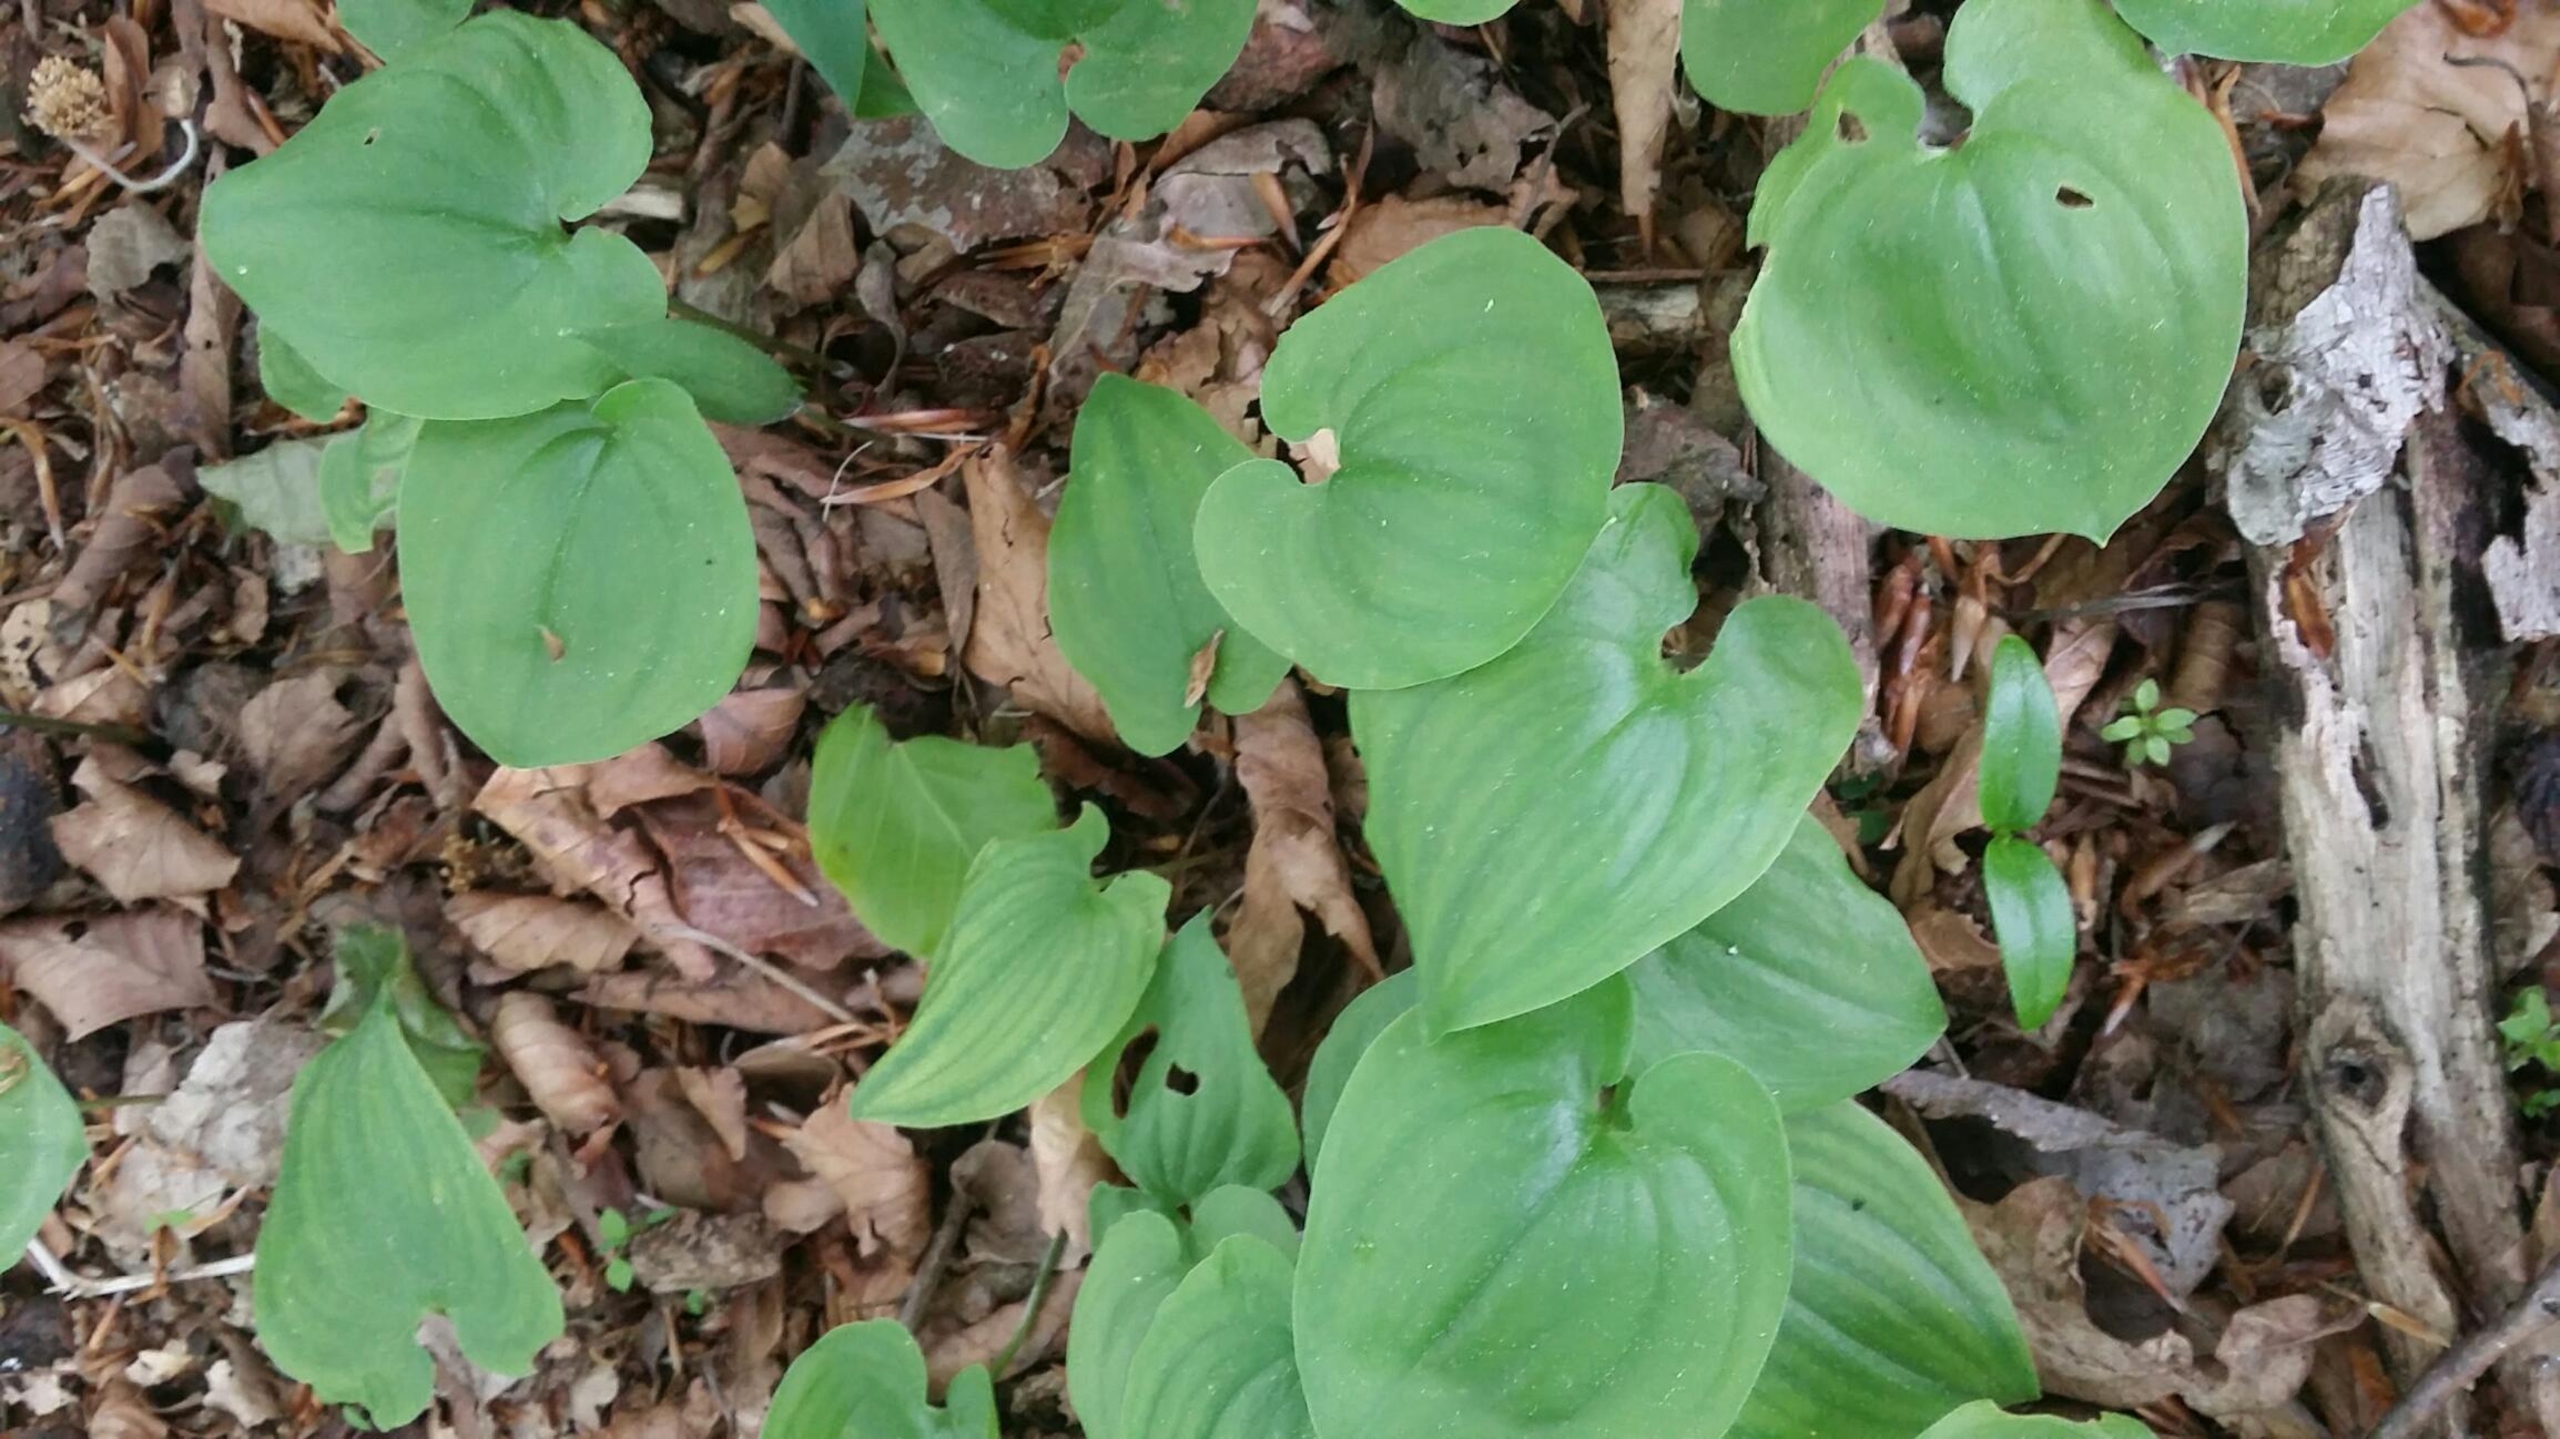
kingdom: Plantae
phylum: Tracheophyta
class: Liliopsida
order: Asparagales
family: Asparagaceae
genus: Maianthemum
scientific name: Maianthemum bifolium
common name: Majblomst
